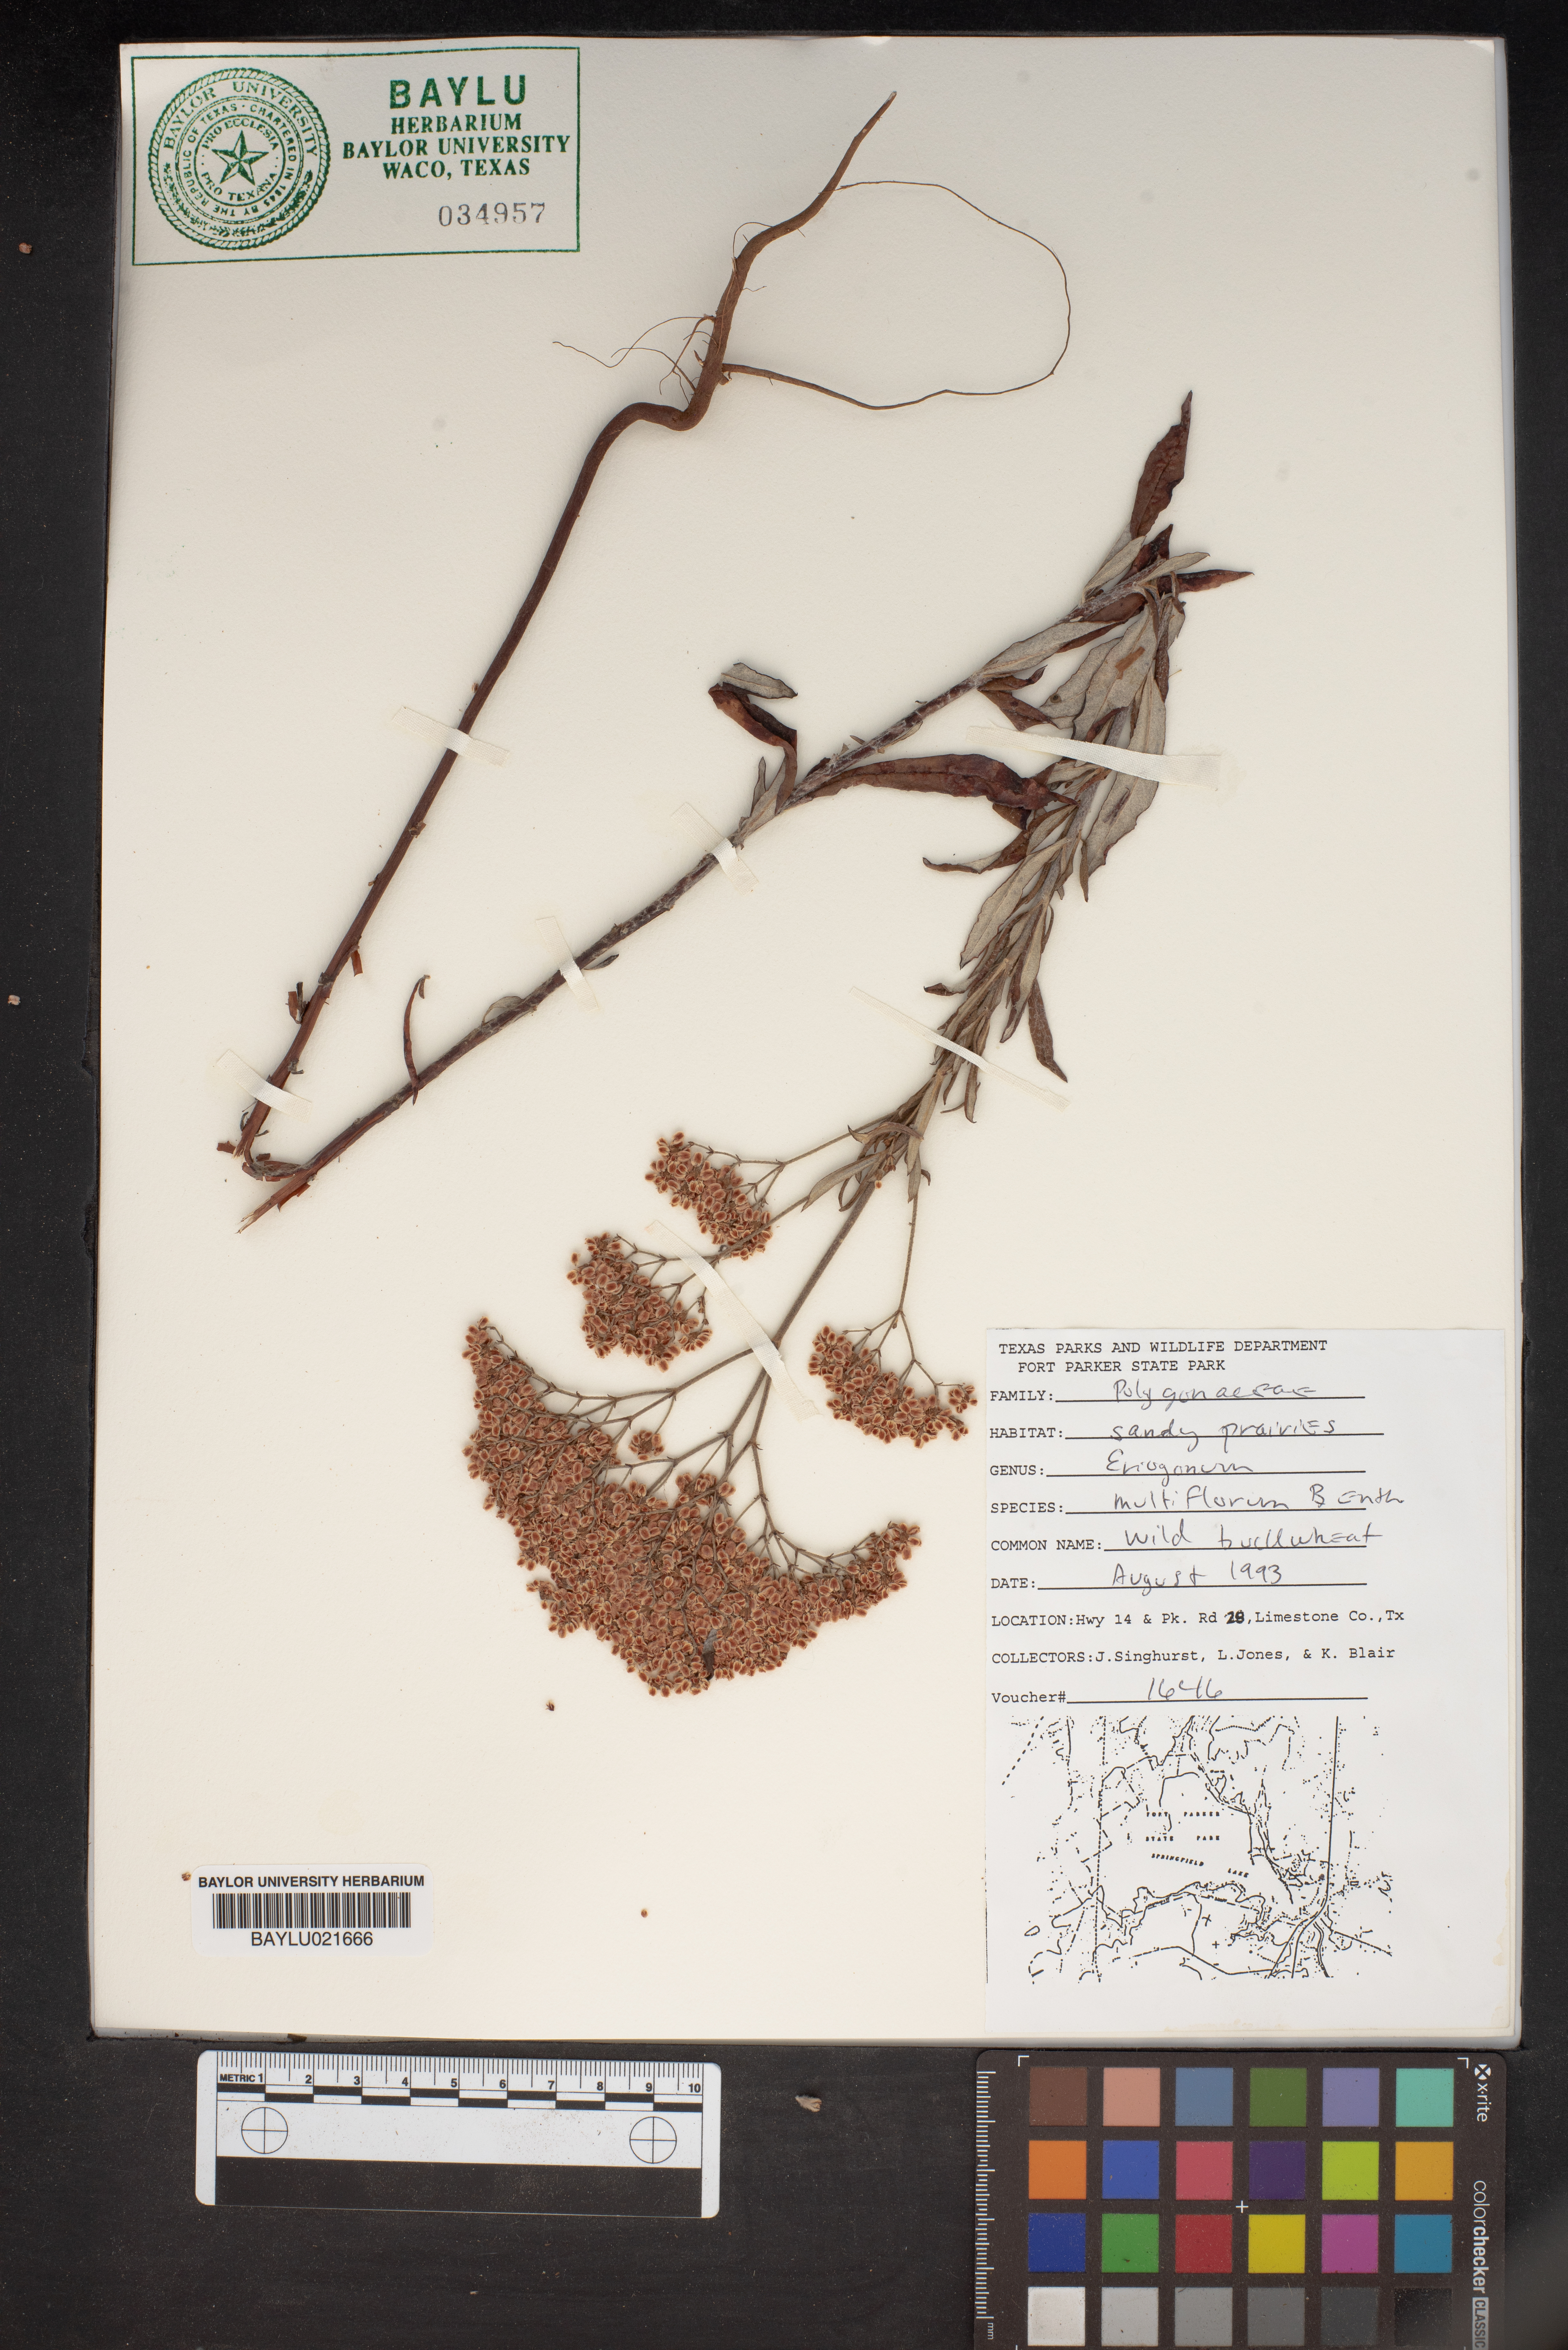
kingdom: Plantae
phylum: Tracheophyta
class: Magnoliopsida
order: Caryophyllales
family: Polygonaceae
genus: Eriogonum
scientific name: Eriogonum multiflorum
